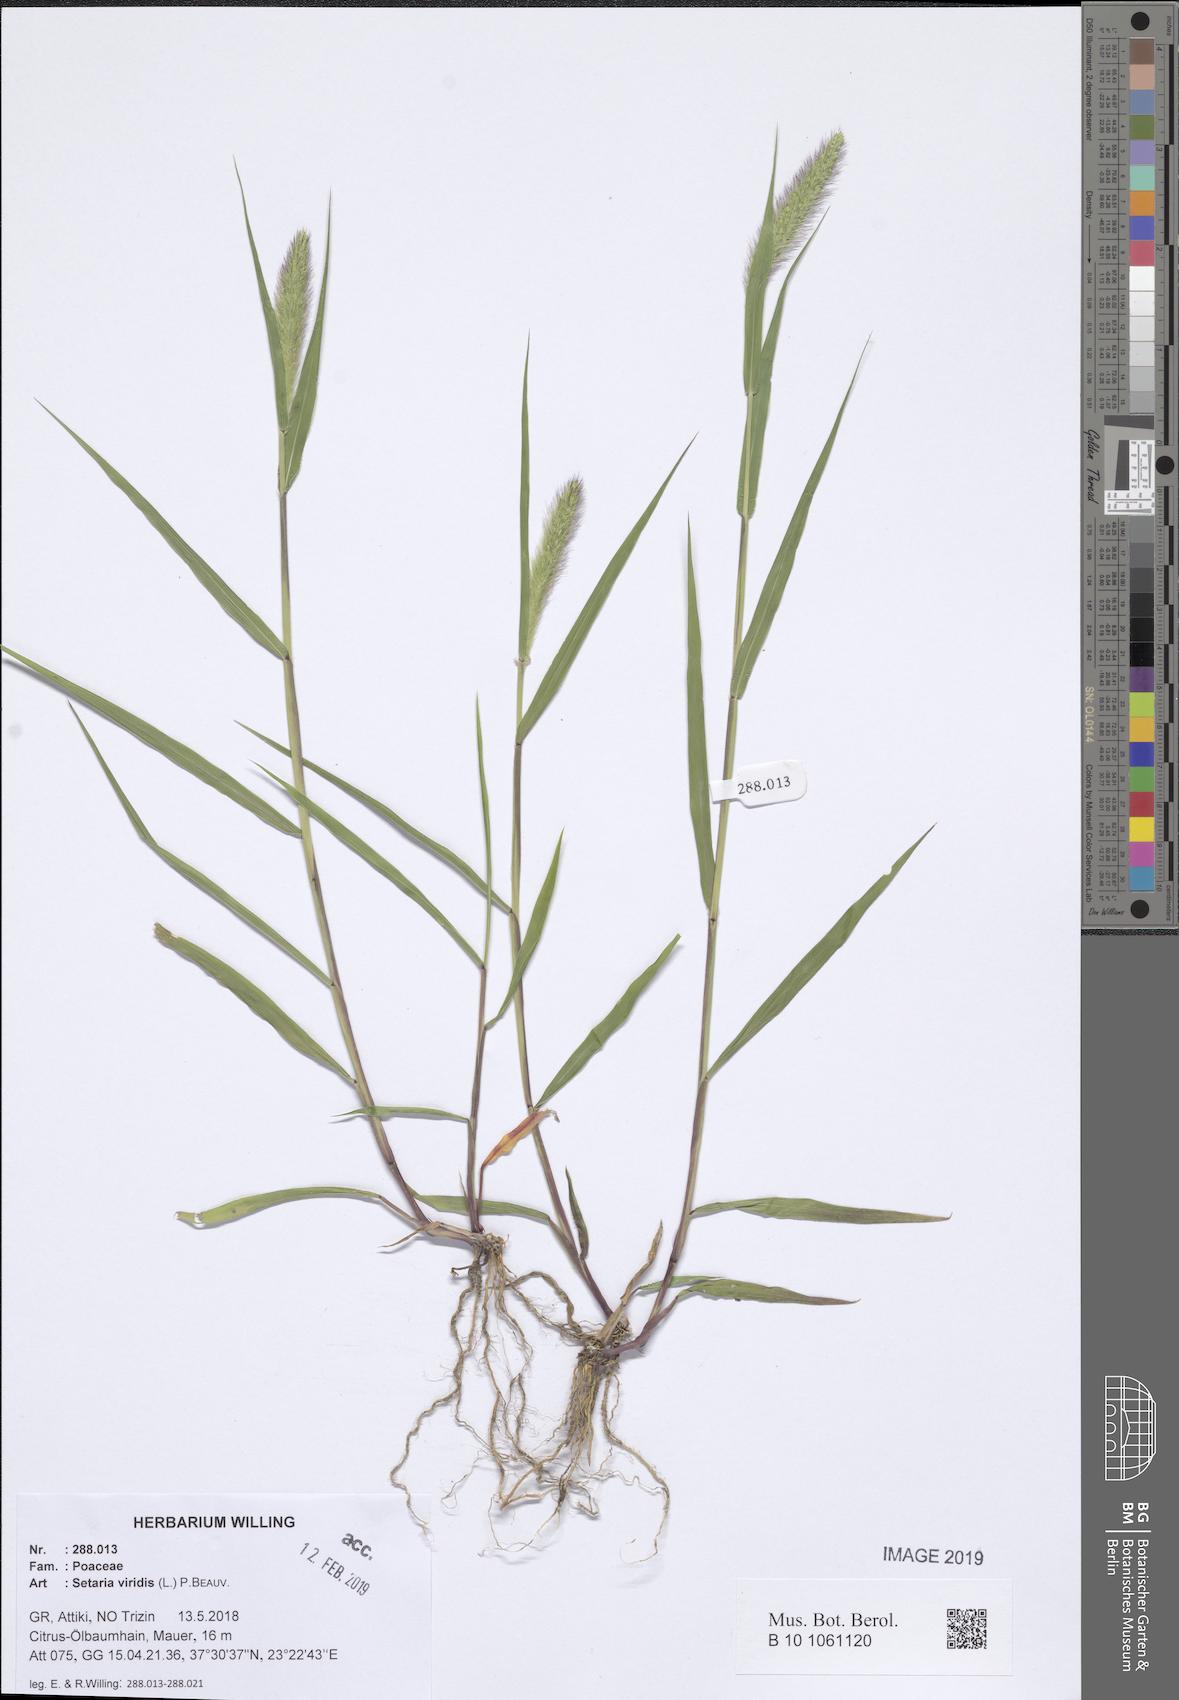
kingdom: Plantae
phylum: Tracheophyta
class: Liliopsida
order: Poales
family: Poaceae
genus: Setaria
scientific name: Setaria viridis
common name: Green bristlegrass
